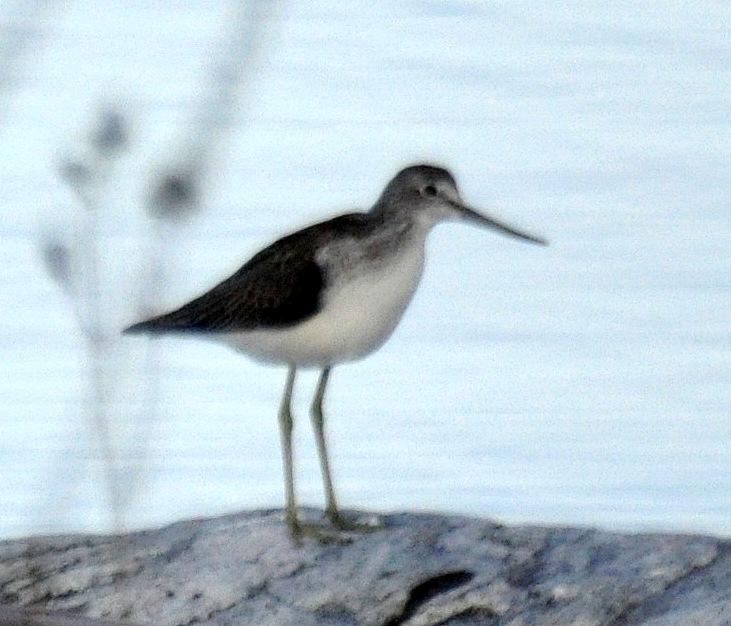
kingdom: Animalia
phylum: Chordata
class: Aves
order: Charadriiformes
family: Scolopacidae
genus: Tringa
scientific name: Tringa nebularia
